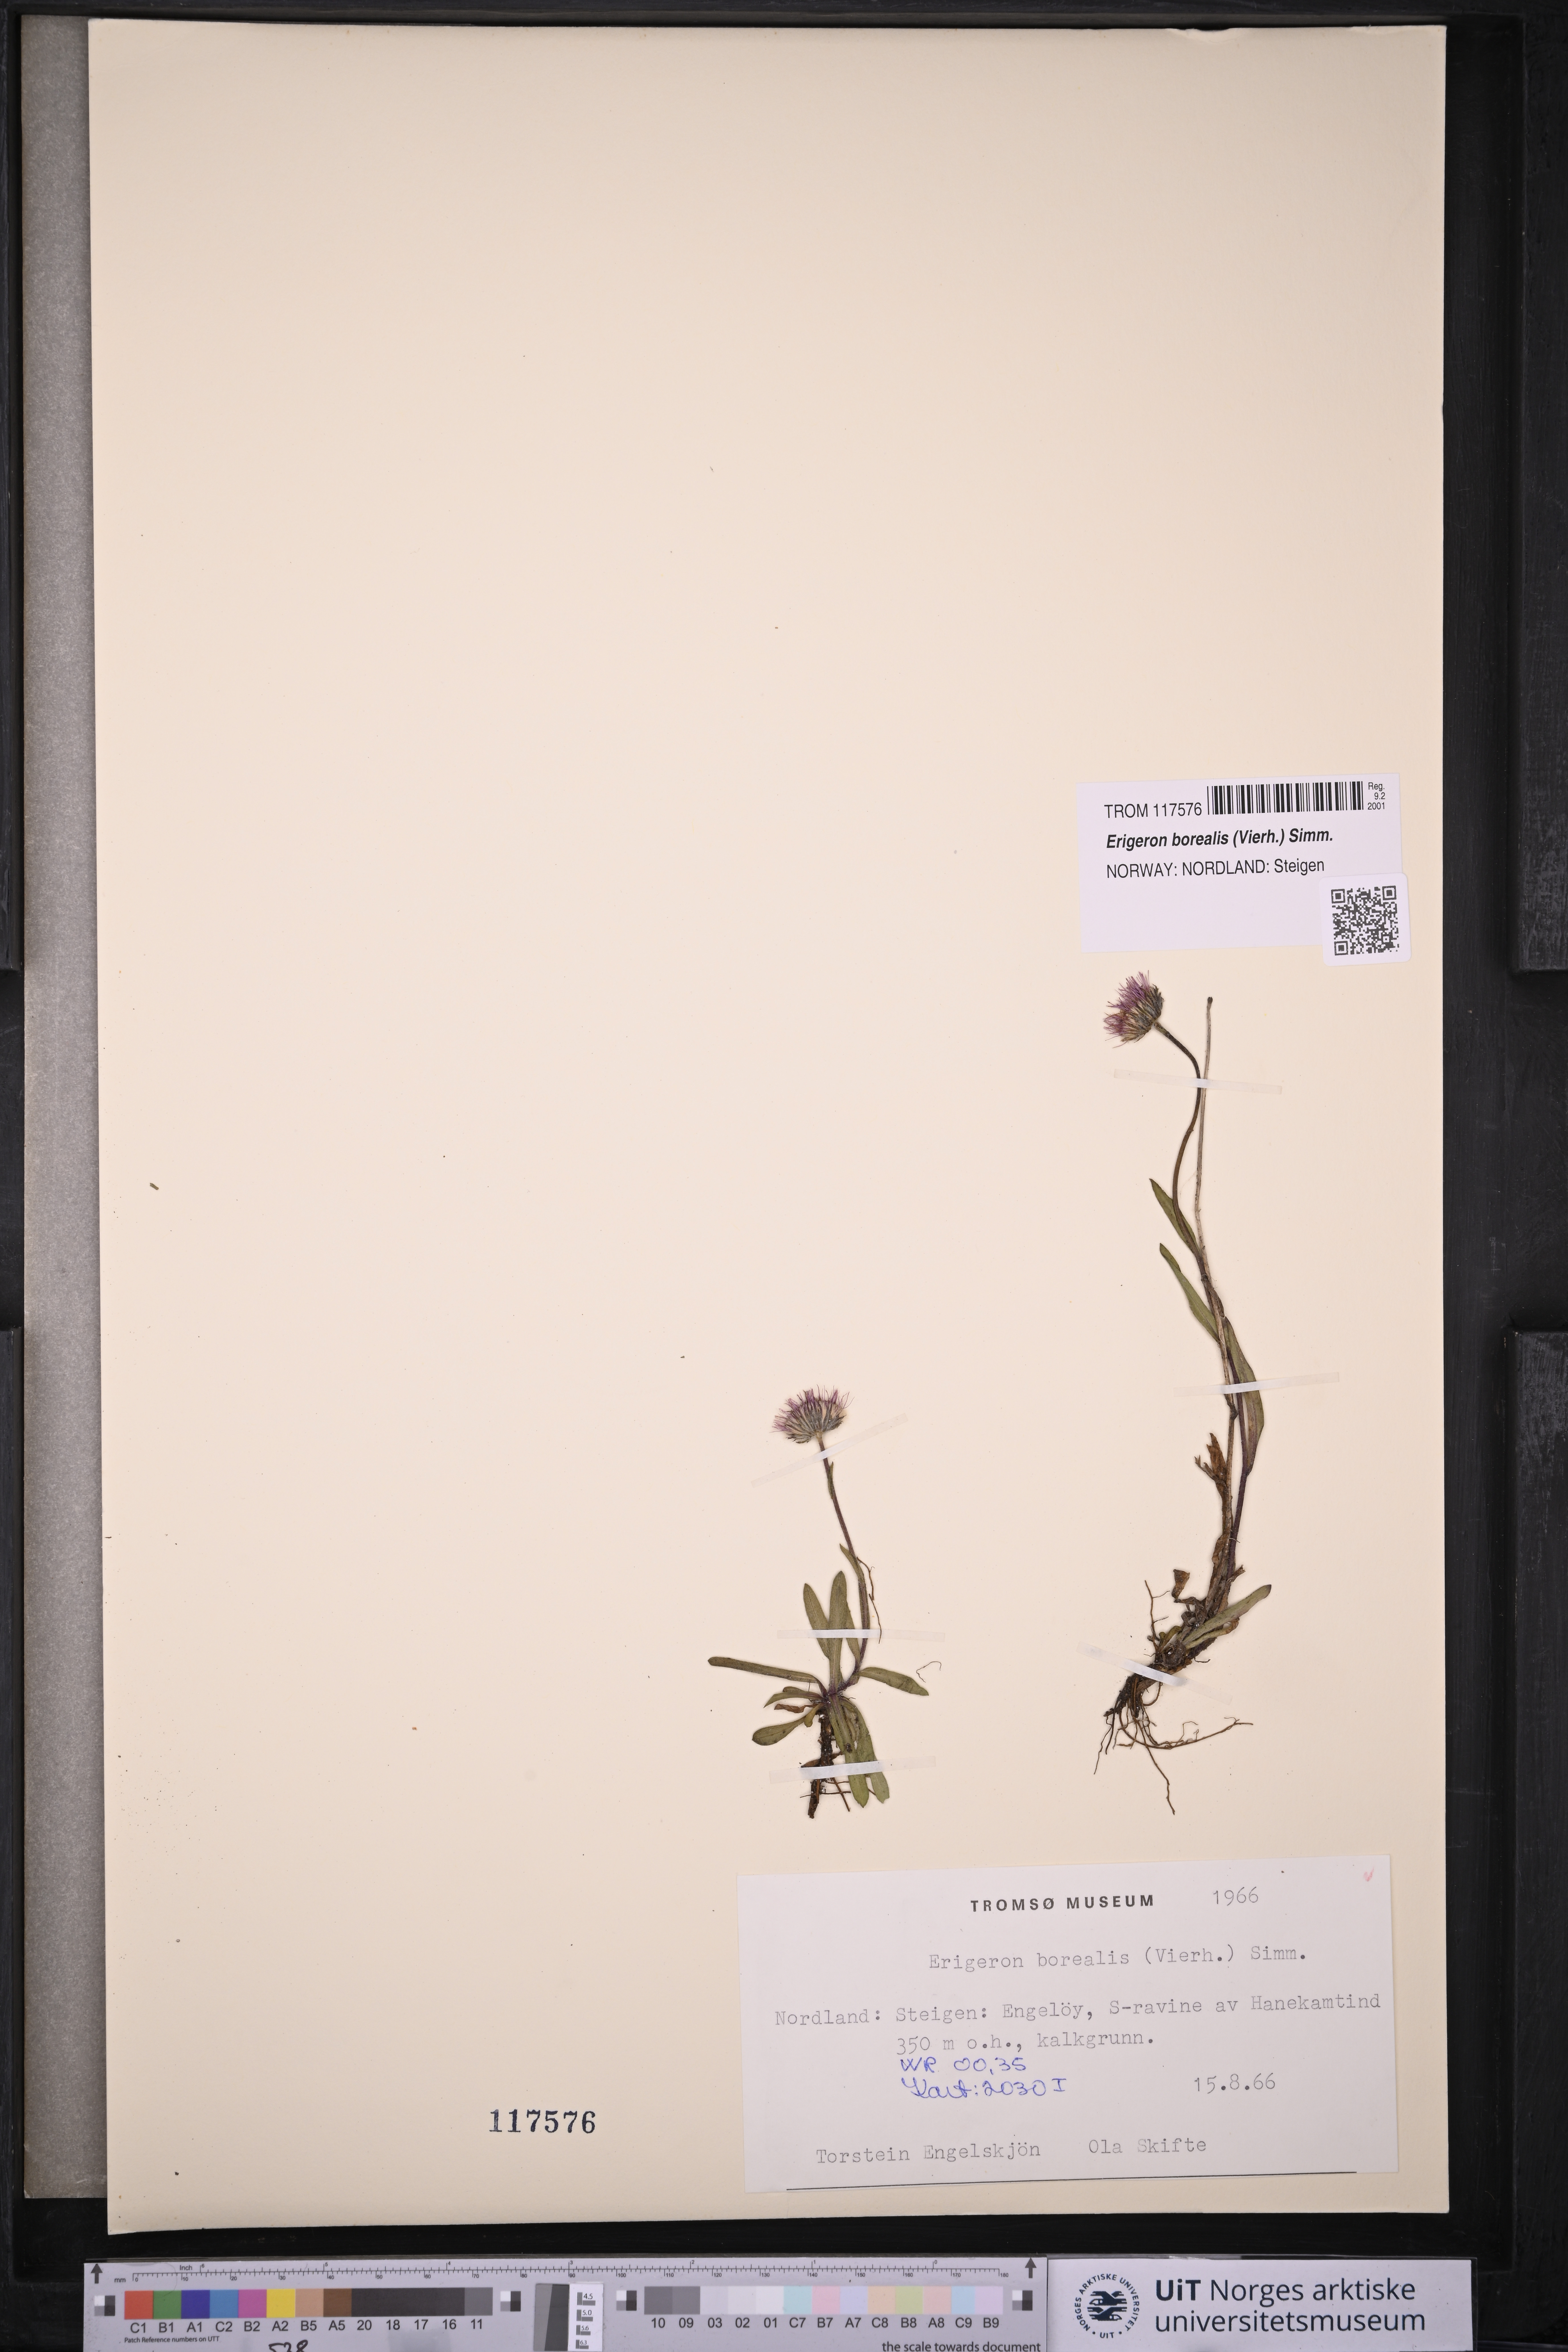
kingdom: Plantae
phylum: Tracheophyta
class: Magnoliopsida
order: Asterales
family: Asteraceae
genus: Erigeron
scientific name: Erigeron borealis
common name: Alpine fleabane
